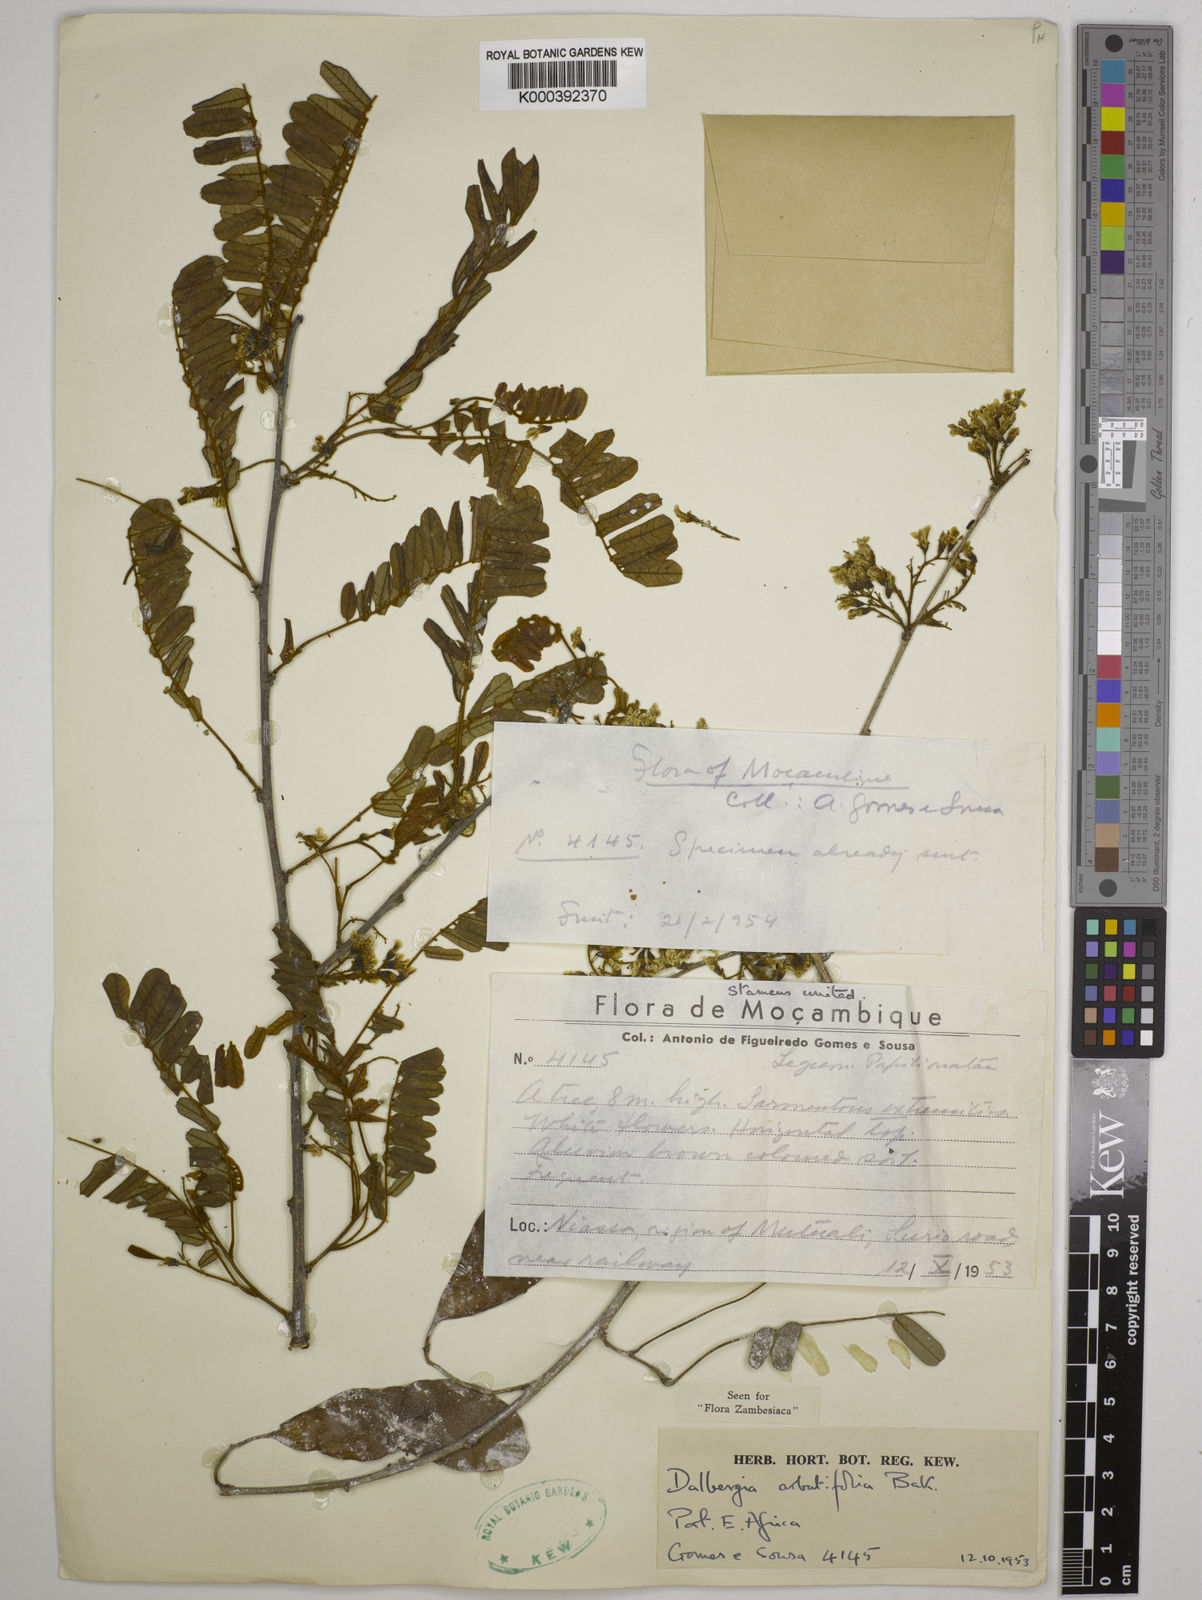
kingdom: Plantae
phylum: Tracheophyta
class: Magnoliopsida
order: Fabales
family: Fabaceae
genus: Dalbergia
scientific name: Dalbergia arbutifolia
